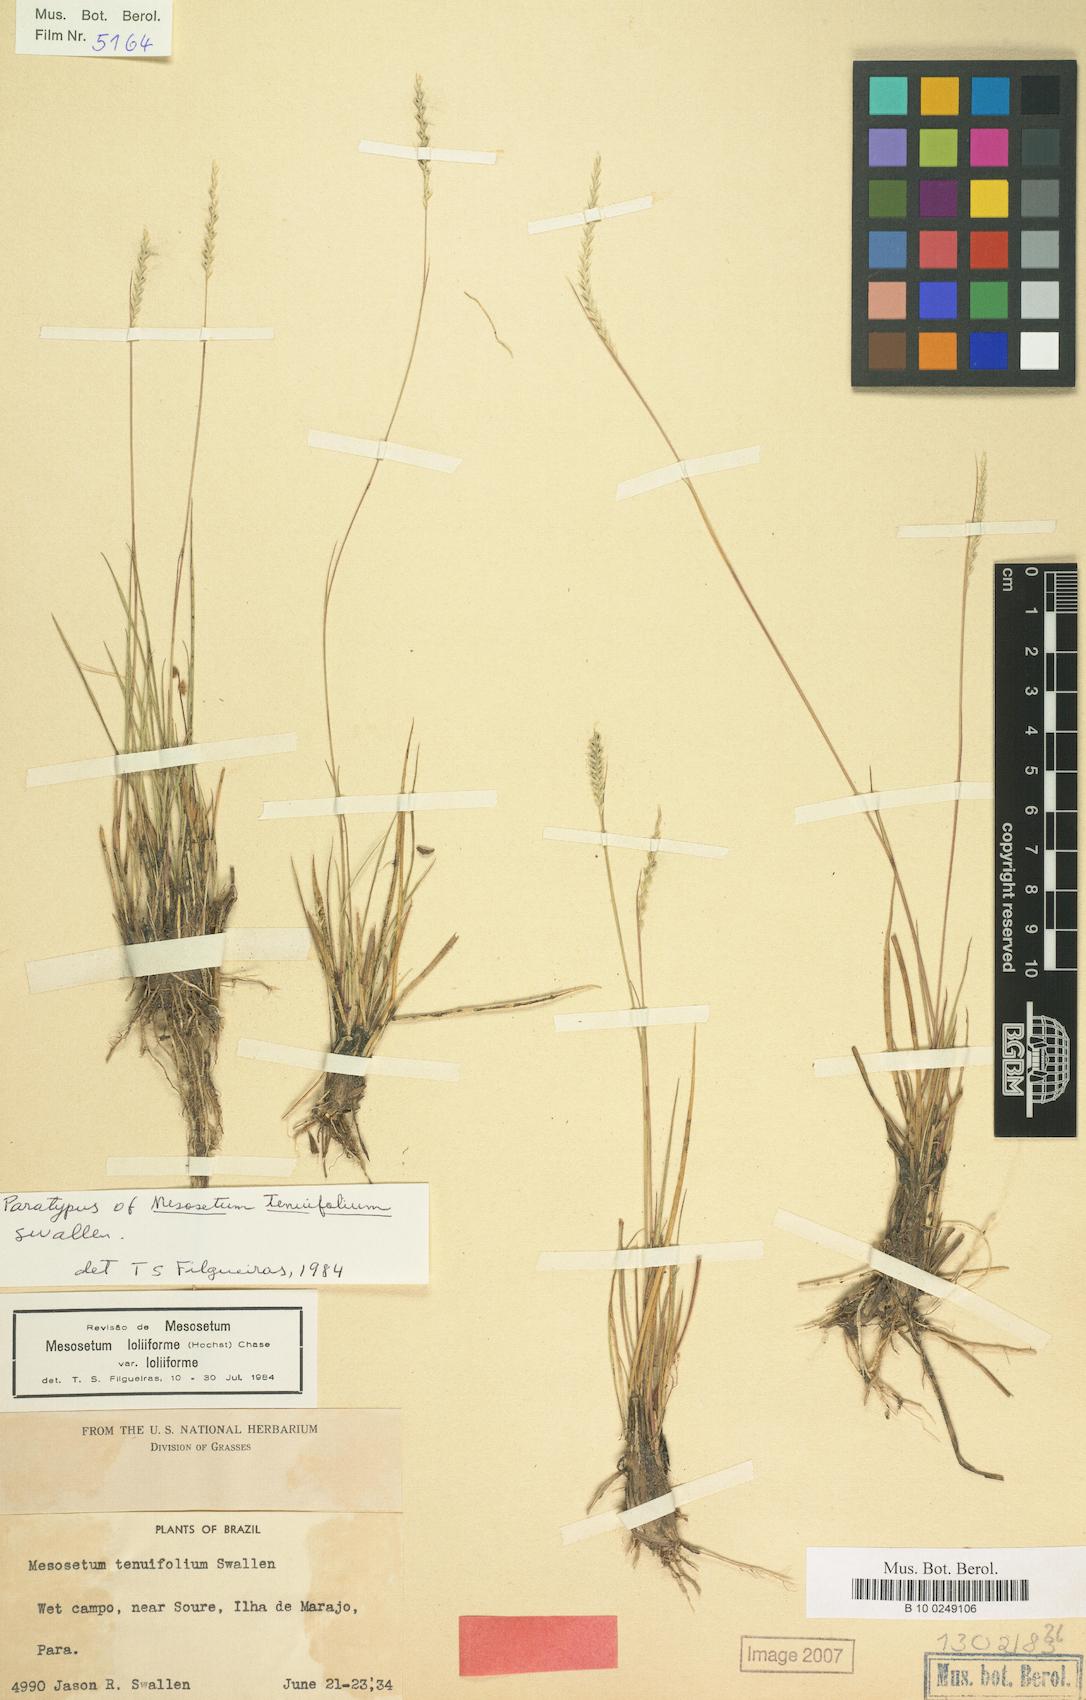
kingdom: Plantae
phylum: Tracheophyta
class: Liliopsida
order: Poales
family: Poaceae
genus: Mesosetum
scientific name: Mesosetum loliiforme
